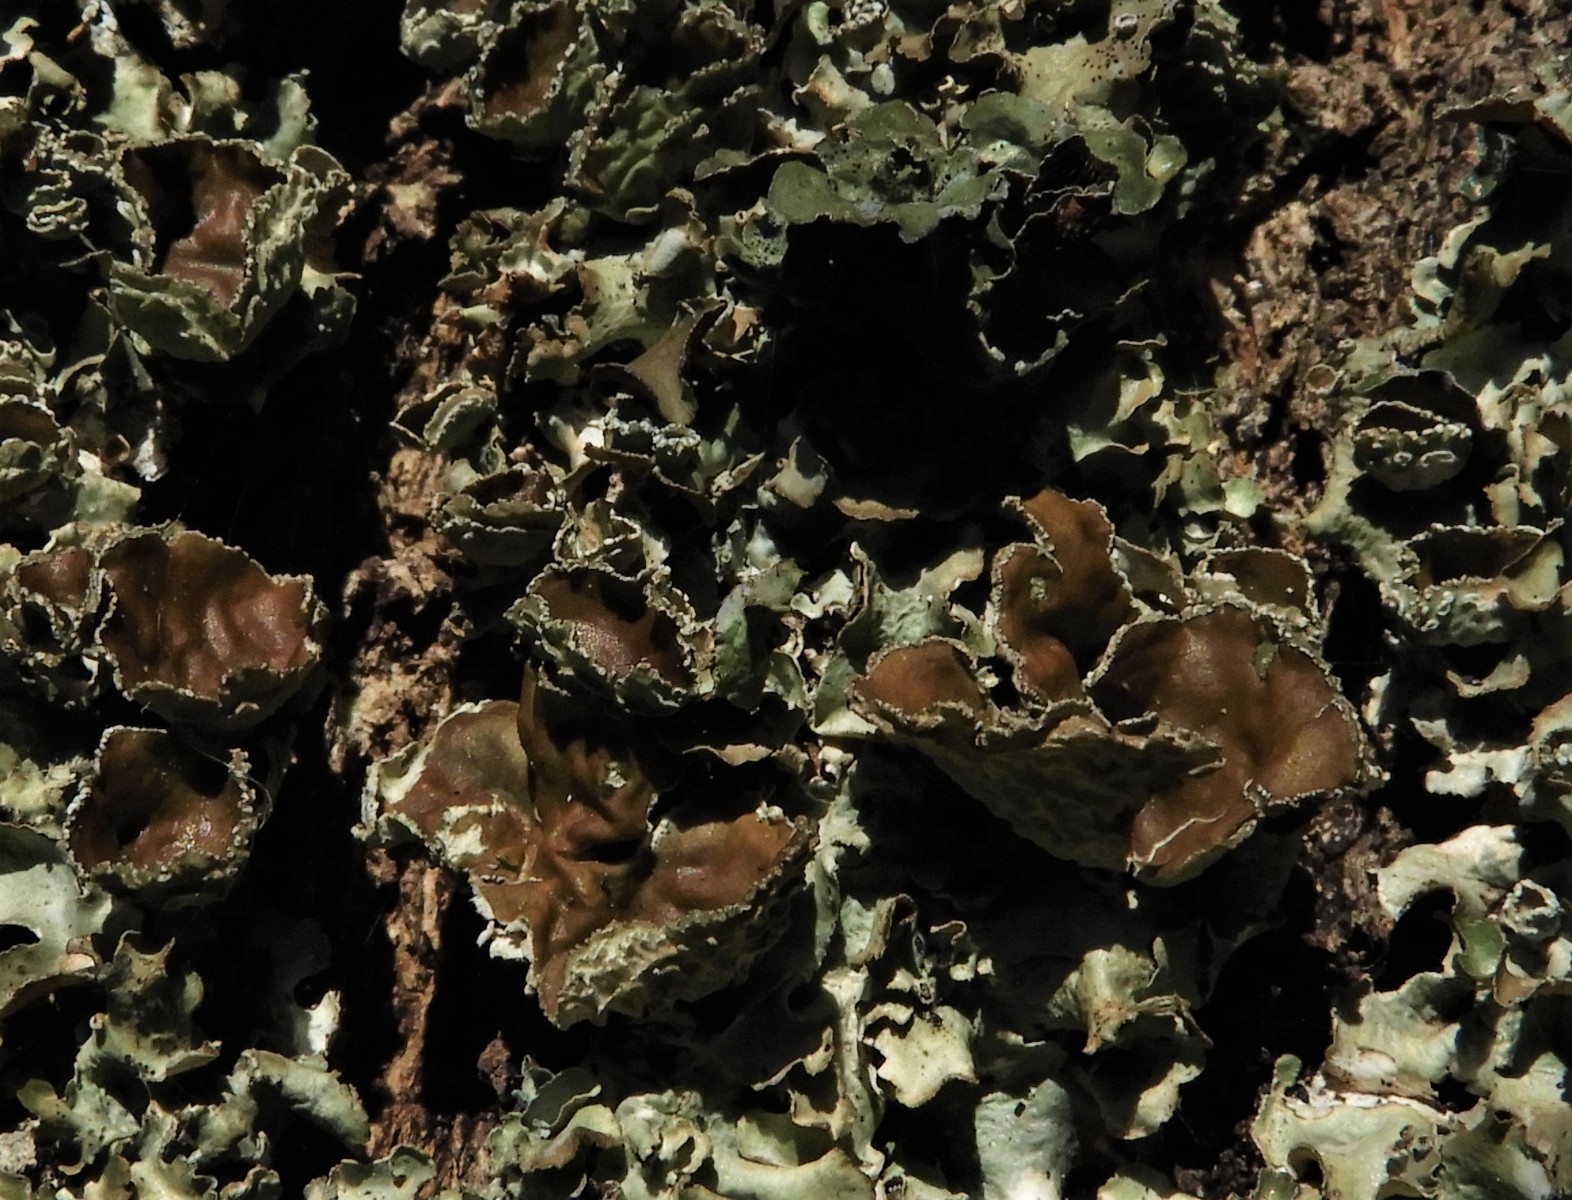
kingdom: Fungi
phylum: Ascomycota
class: Lecanoromycetes
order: Lecanorales
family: Parmeliaceae
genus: Pleurosticta
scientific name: Pleurosticta acetabulum
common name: stor skållav
